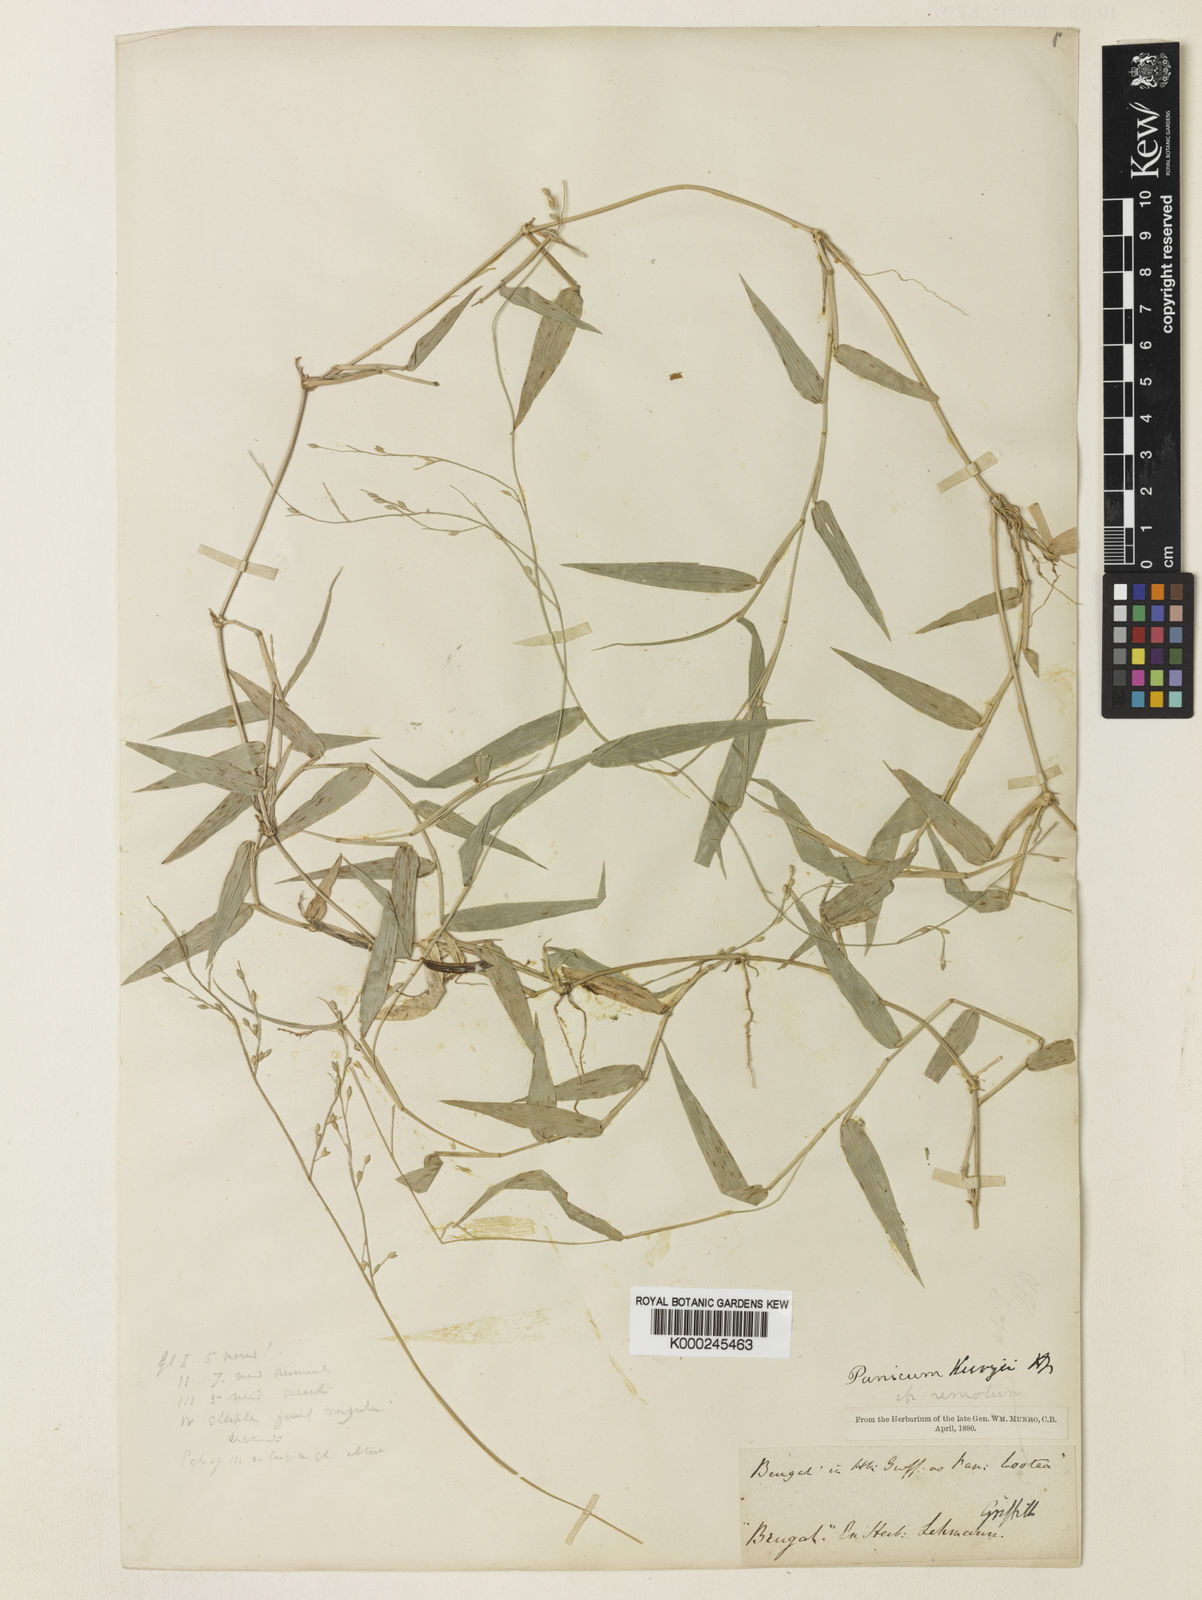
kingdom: Plantae
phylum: Tracheophyta
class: Liliopsida
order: Poales
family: Poaceae
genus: Urochloa
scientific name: Urochloa kurzii
